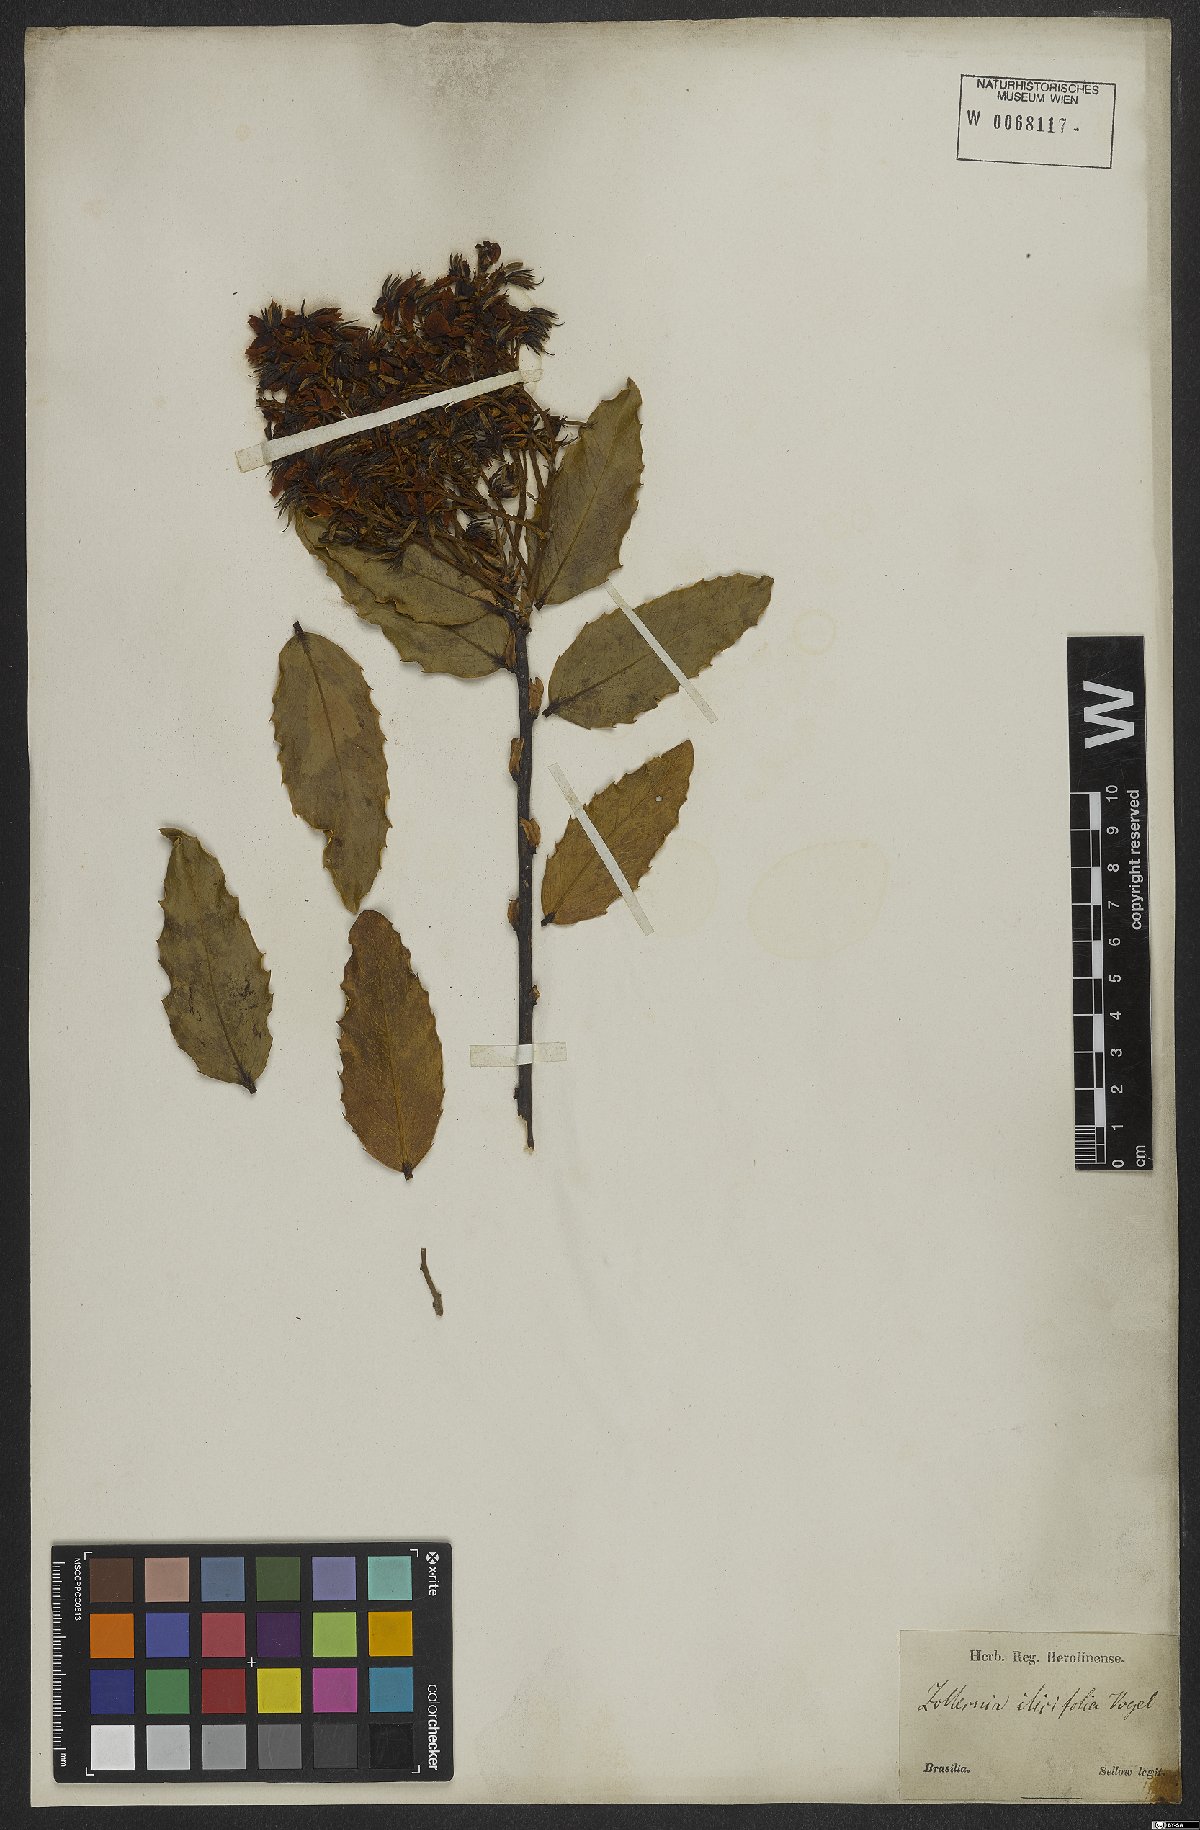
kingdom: Plantae
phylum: Tracheophyta
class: Magnoliopsida
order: Fabales
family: Fabaceae
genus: Zollernia
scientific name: Zollernia ilicifolia
